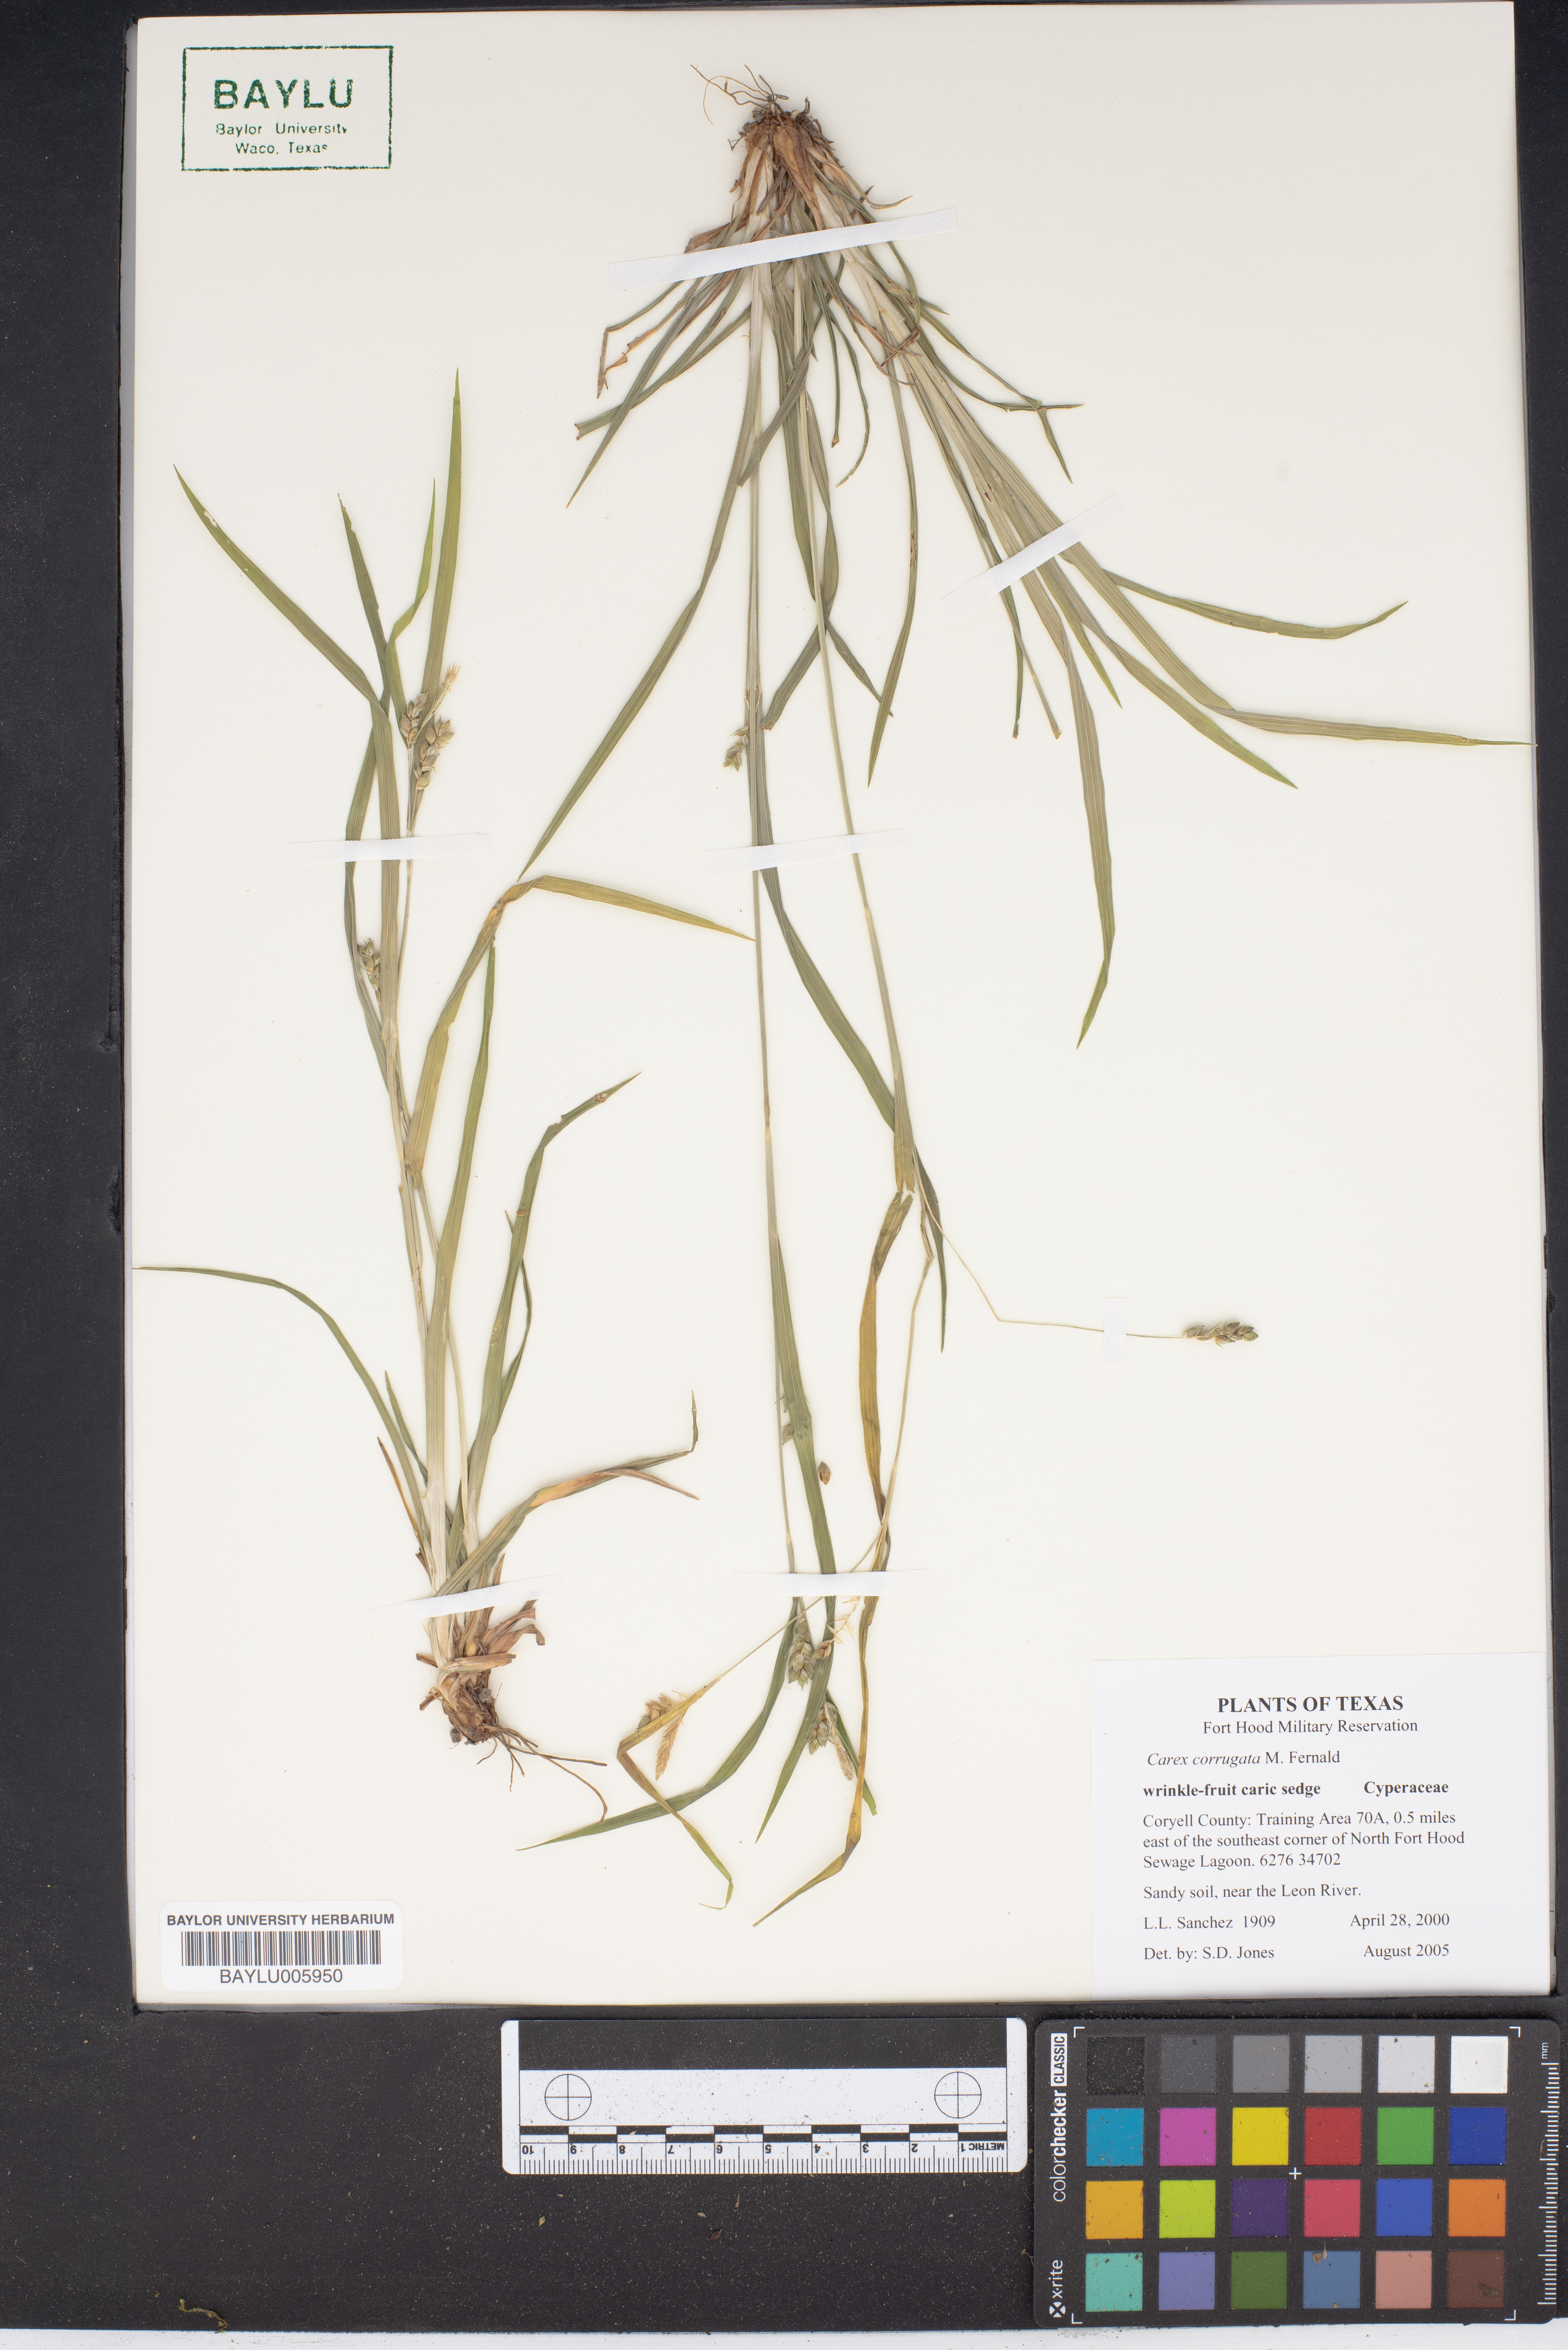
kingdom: Plantae
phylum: Tracheophyta
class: Liliopsida
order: Poales
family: Cyperaceae
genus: Carex
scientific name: Carex corrugata
